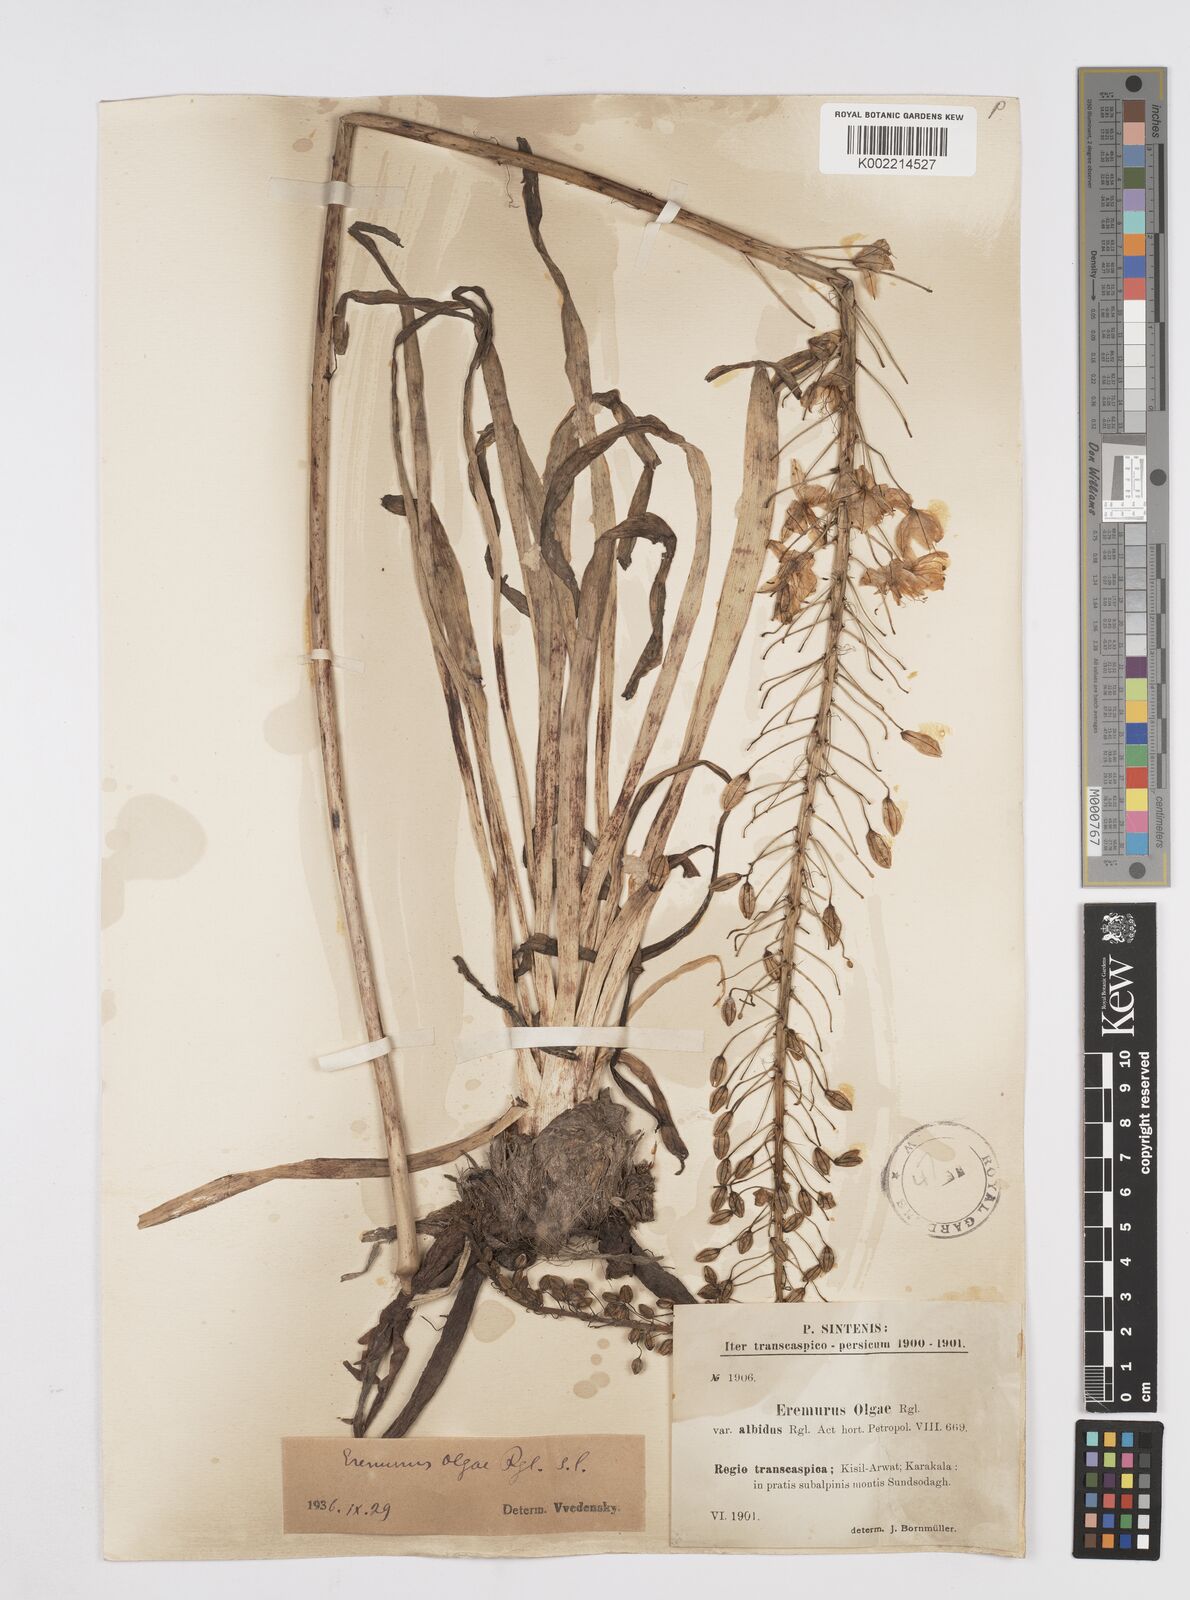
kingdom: Plantae
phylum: Tracheophyta
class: Liliopsida
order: Asparagales
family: Asphodelaceae
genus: Eremurus
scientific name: Eremurus olgae
